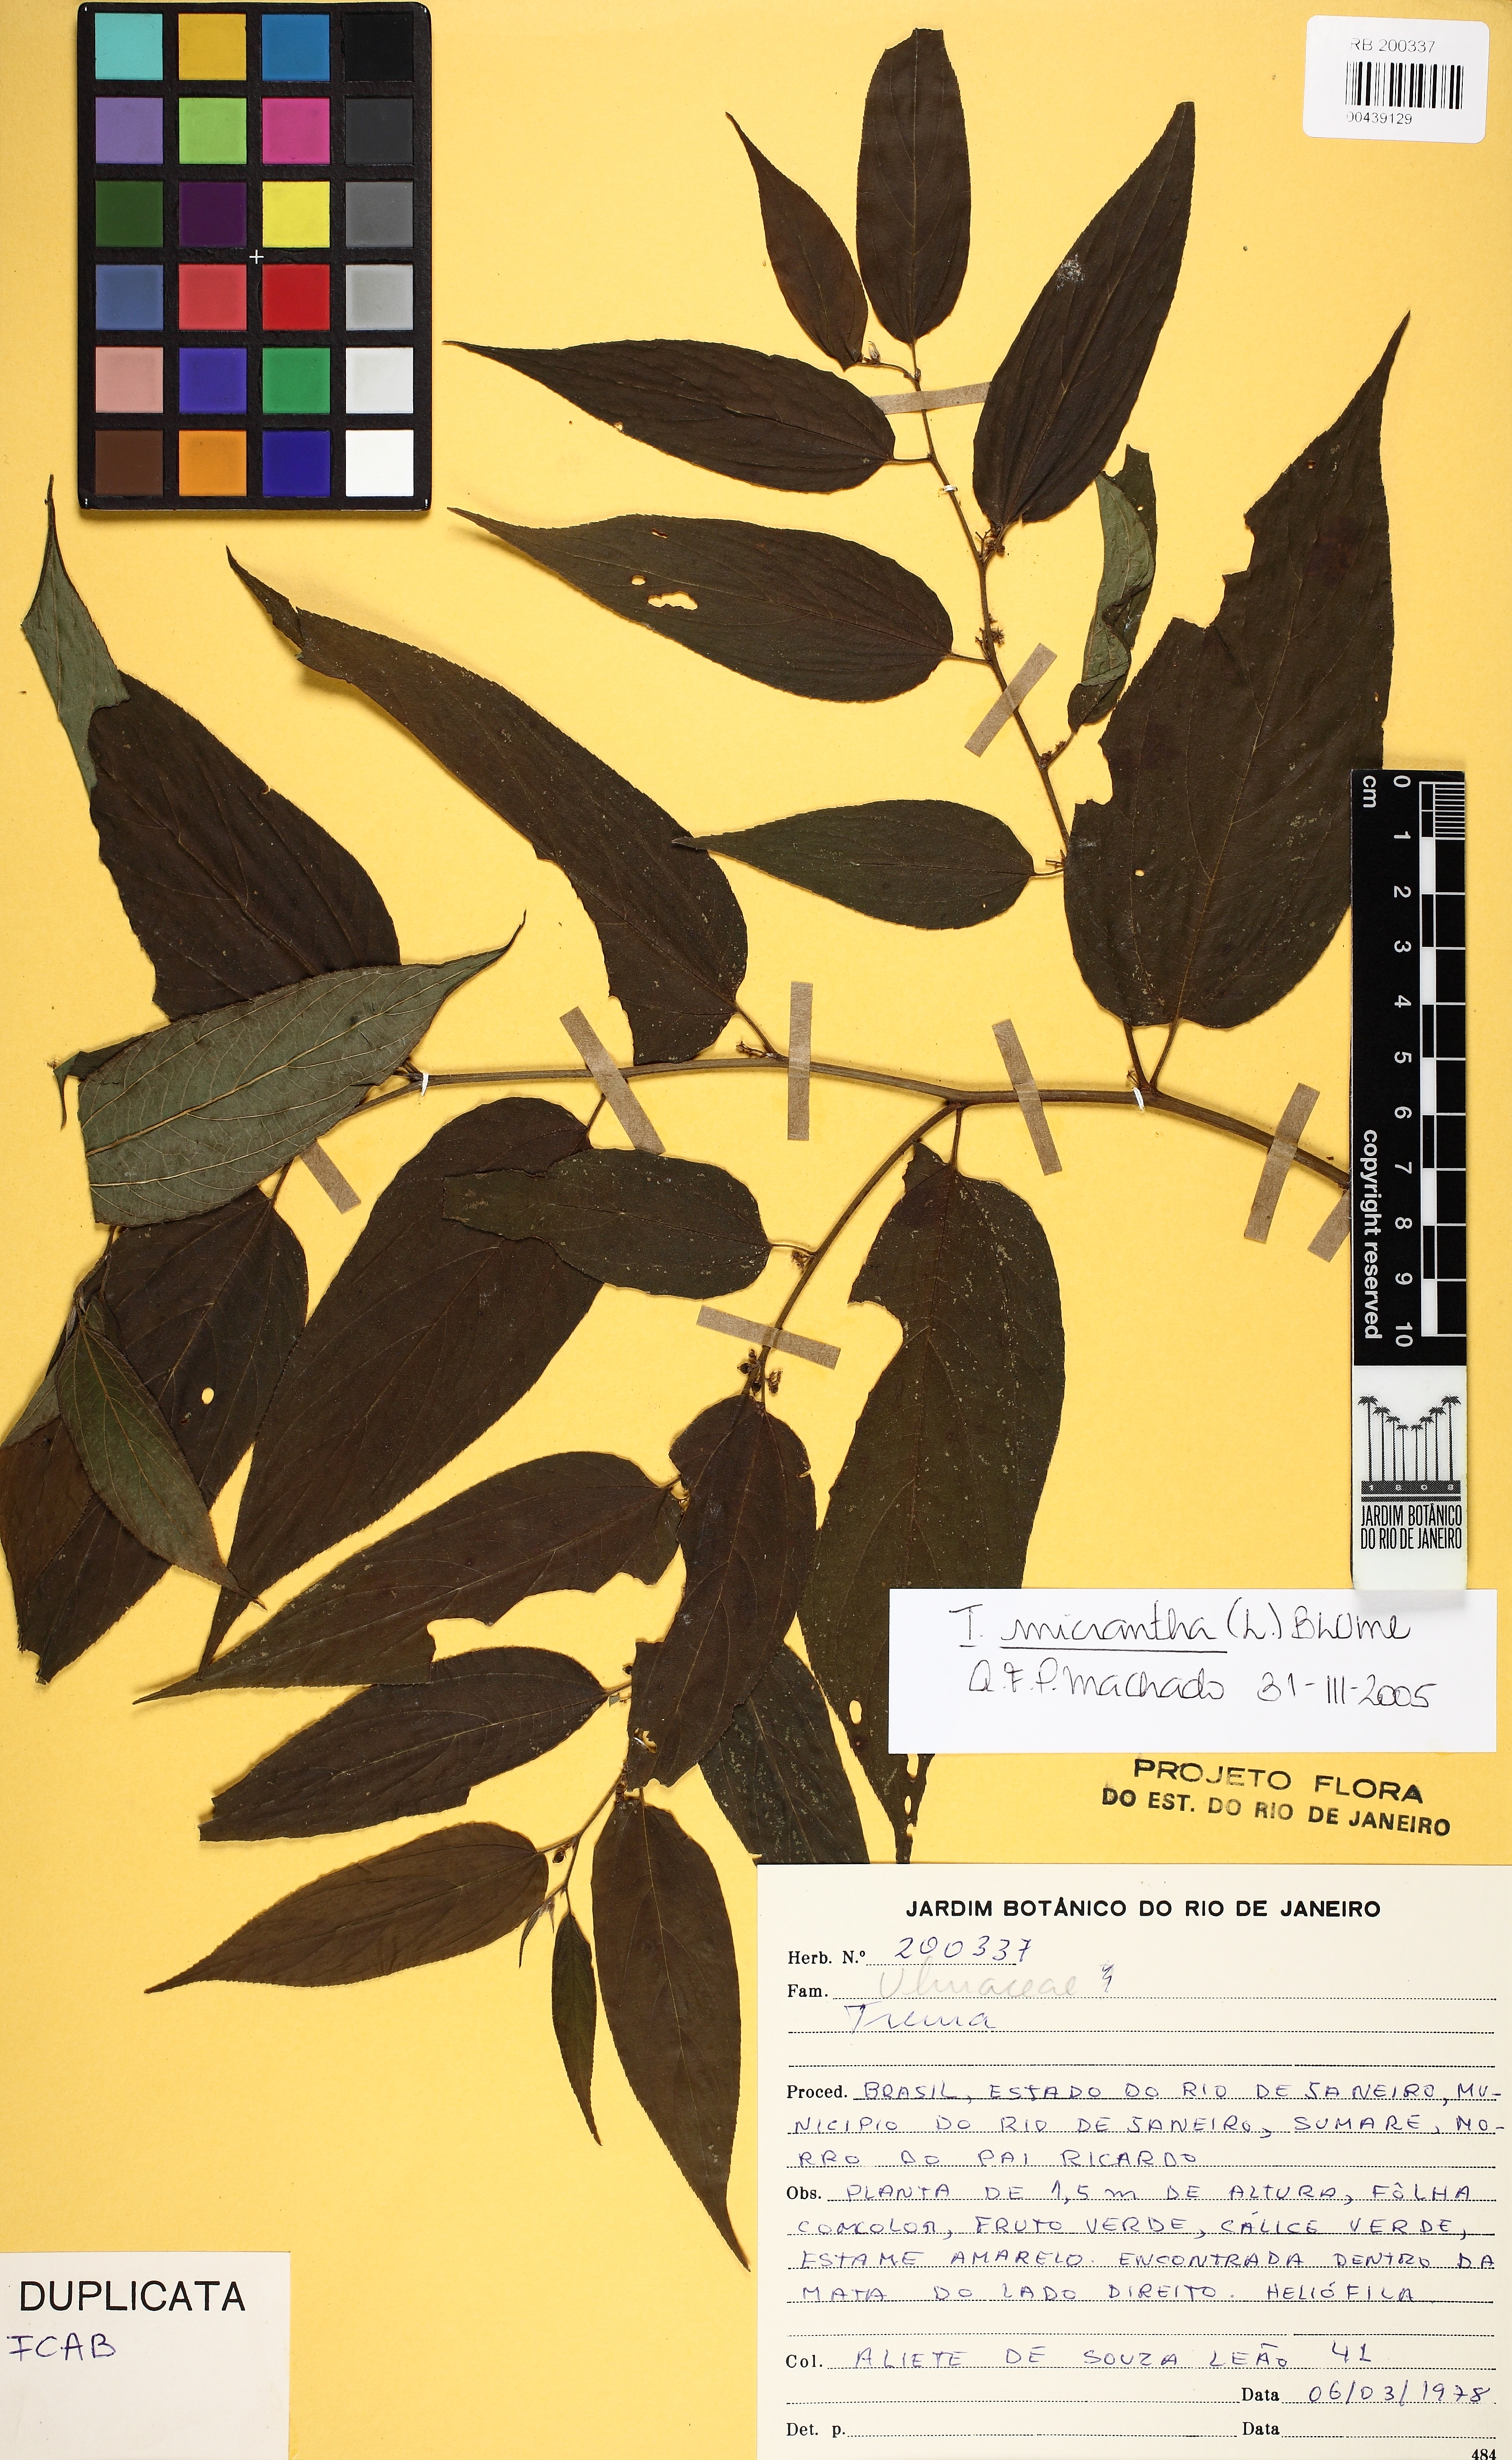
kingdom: Plantae
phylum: Tracheophyta
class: Magnoliopsida
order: Rosales
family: Cannabaceae
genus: Trema
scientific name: Trema micranthum
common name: Jamaican nettletree
